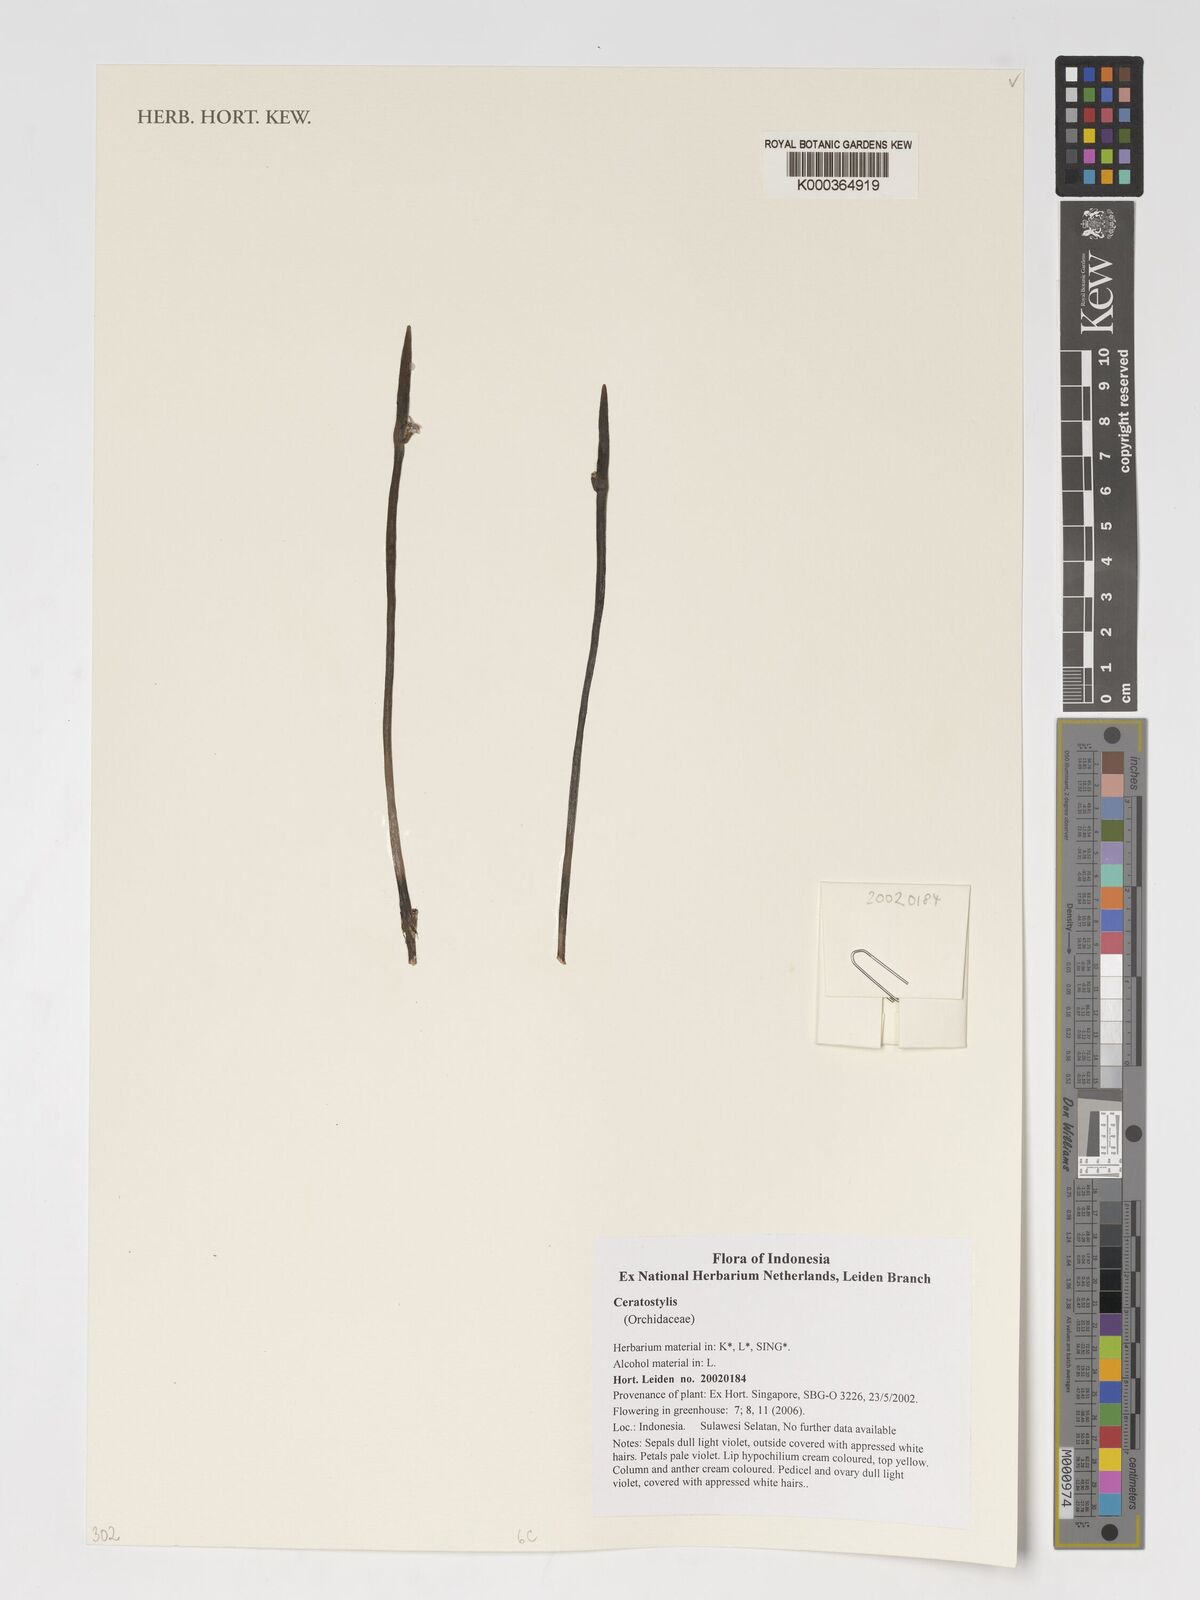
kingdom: Plantae
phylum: Tracheophyta
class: Liliopsida
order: Asparagales
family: Orchidaceae
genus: Ceratostylis
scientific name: Ceratostylis
